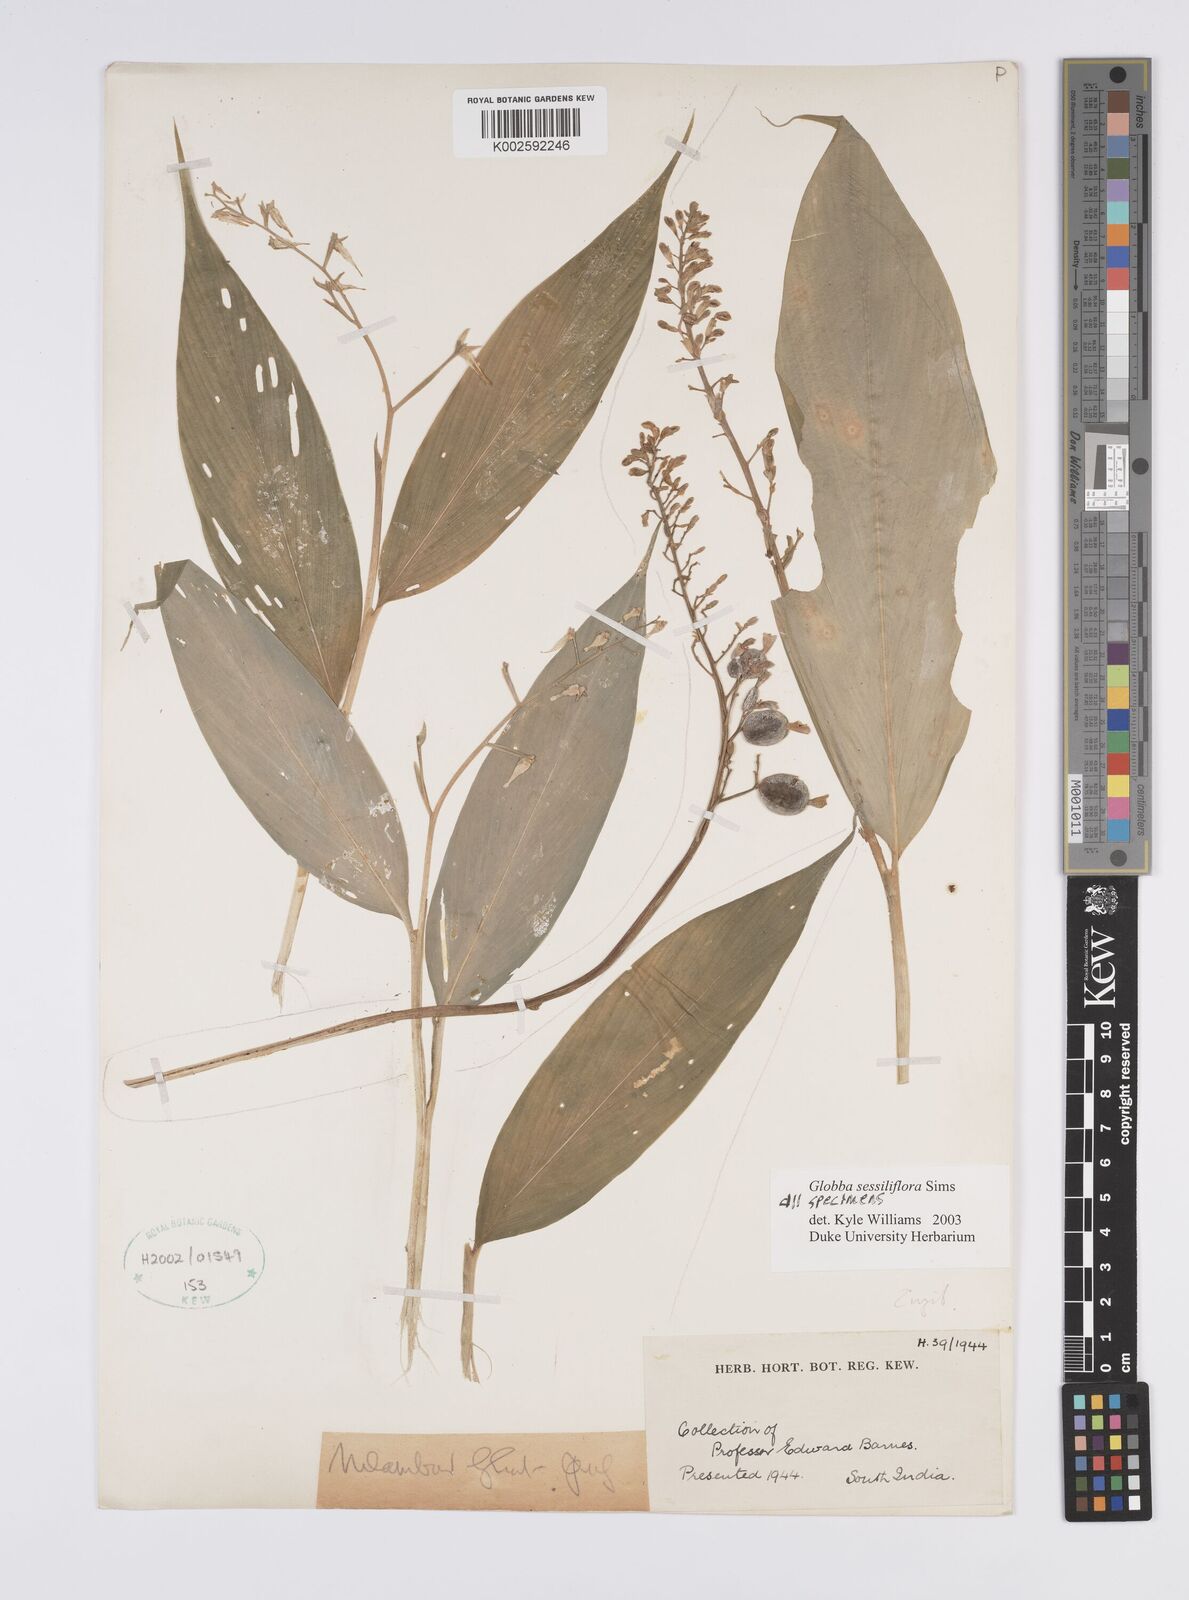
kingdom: Plantae
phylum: Tracheophyta
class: Liliopsida
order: Zingiberales
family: Zingiberaceae
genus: Globba
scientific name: Globba sessiliflora
